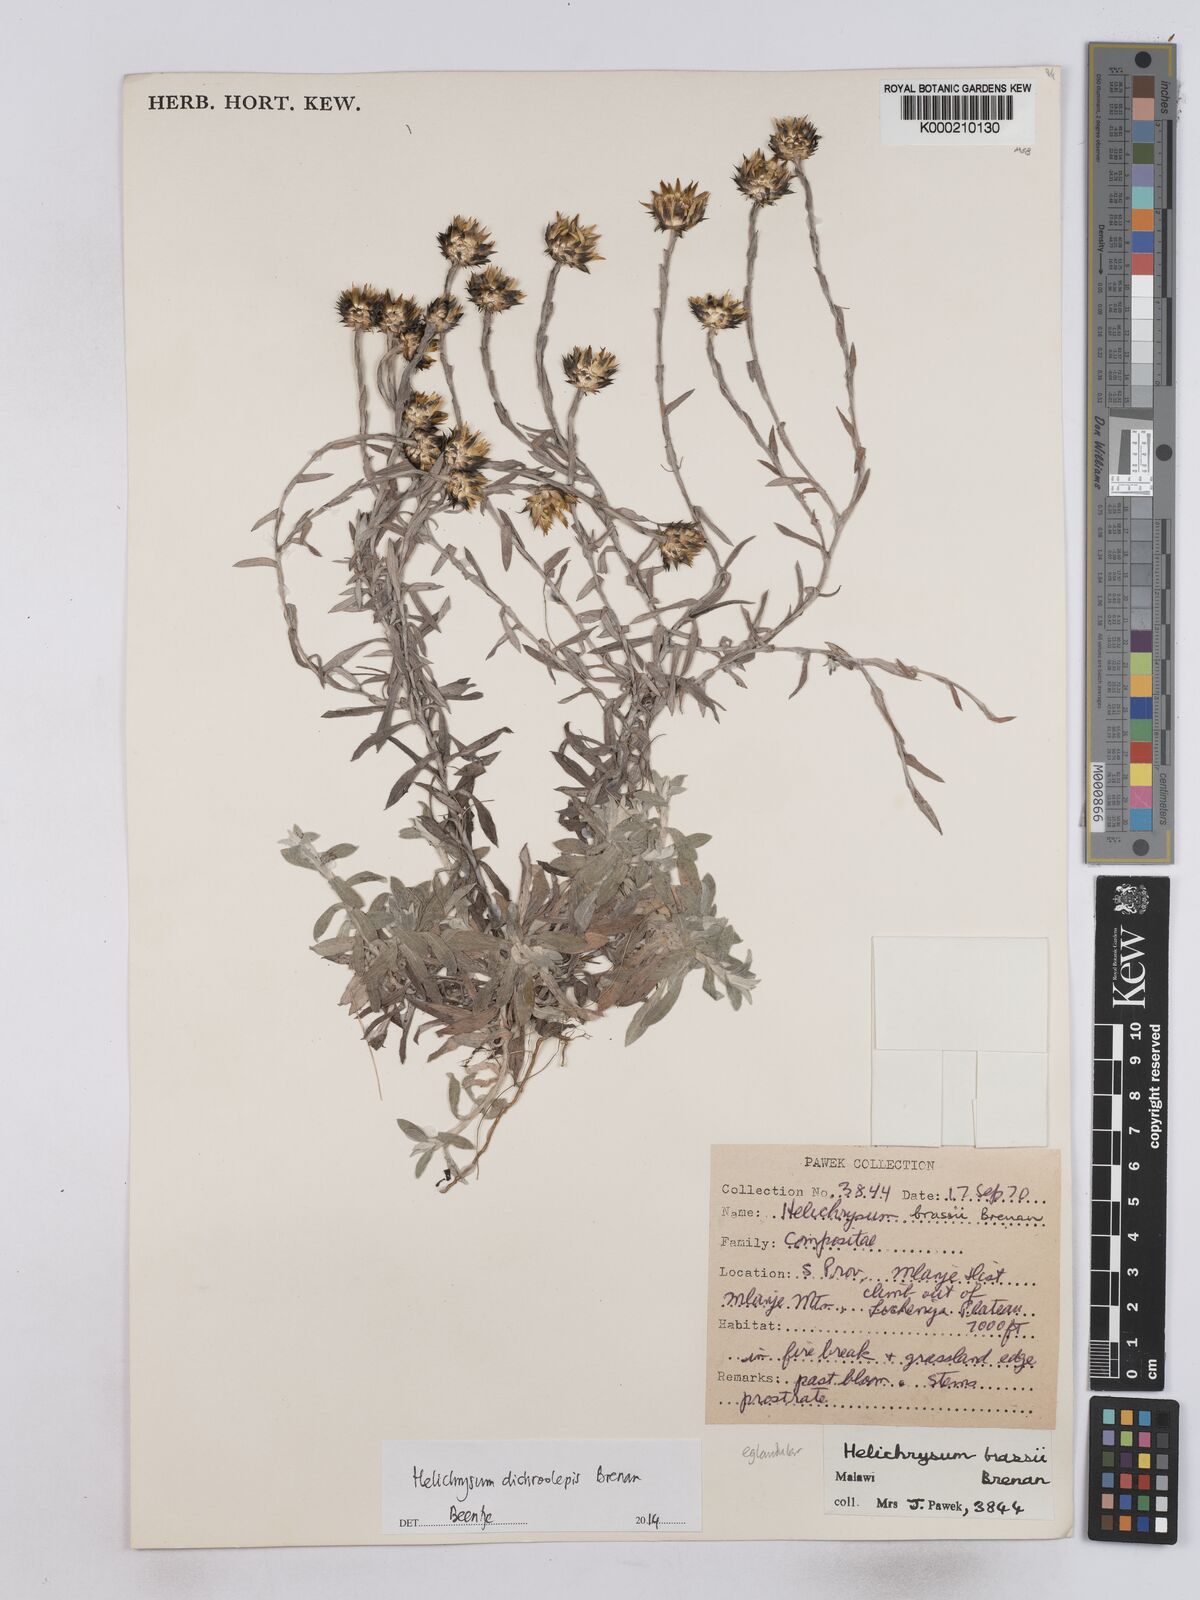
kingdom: Plantae
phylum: Tracheophyta
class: Magnoliopsida
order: Asterales
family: Asteraceae
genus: Helichrysum
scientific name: Helichrysum
